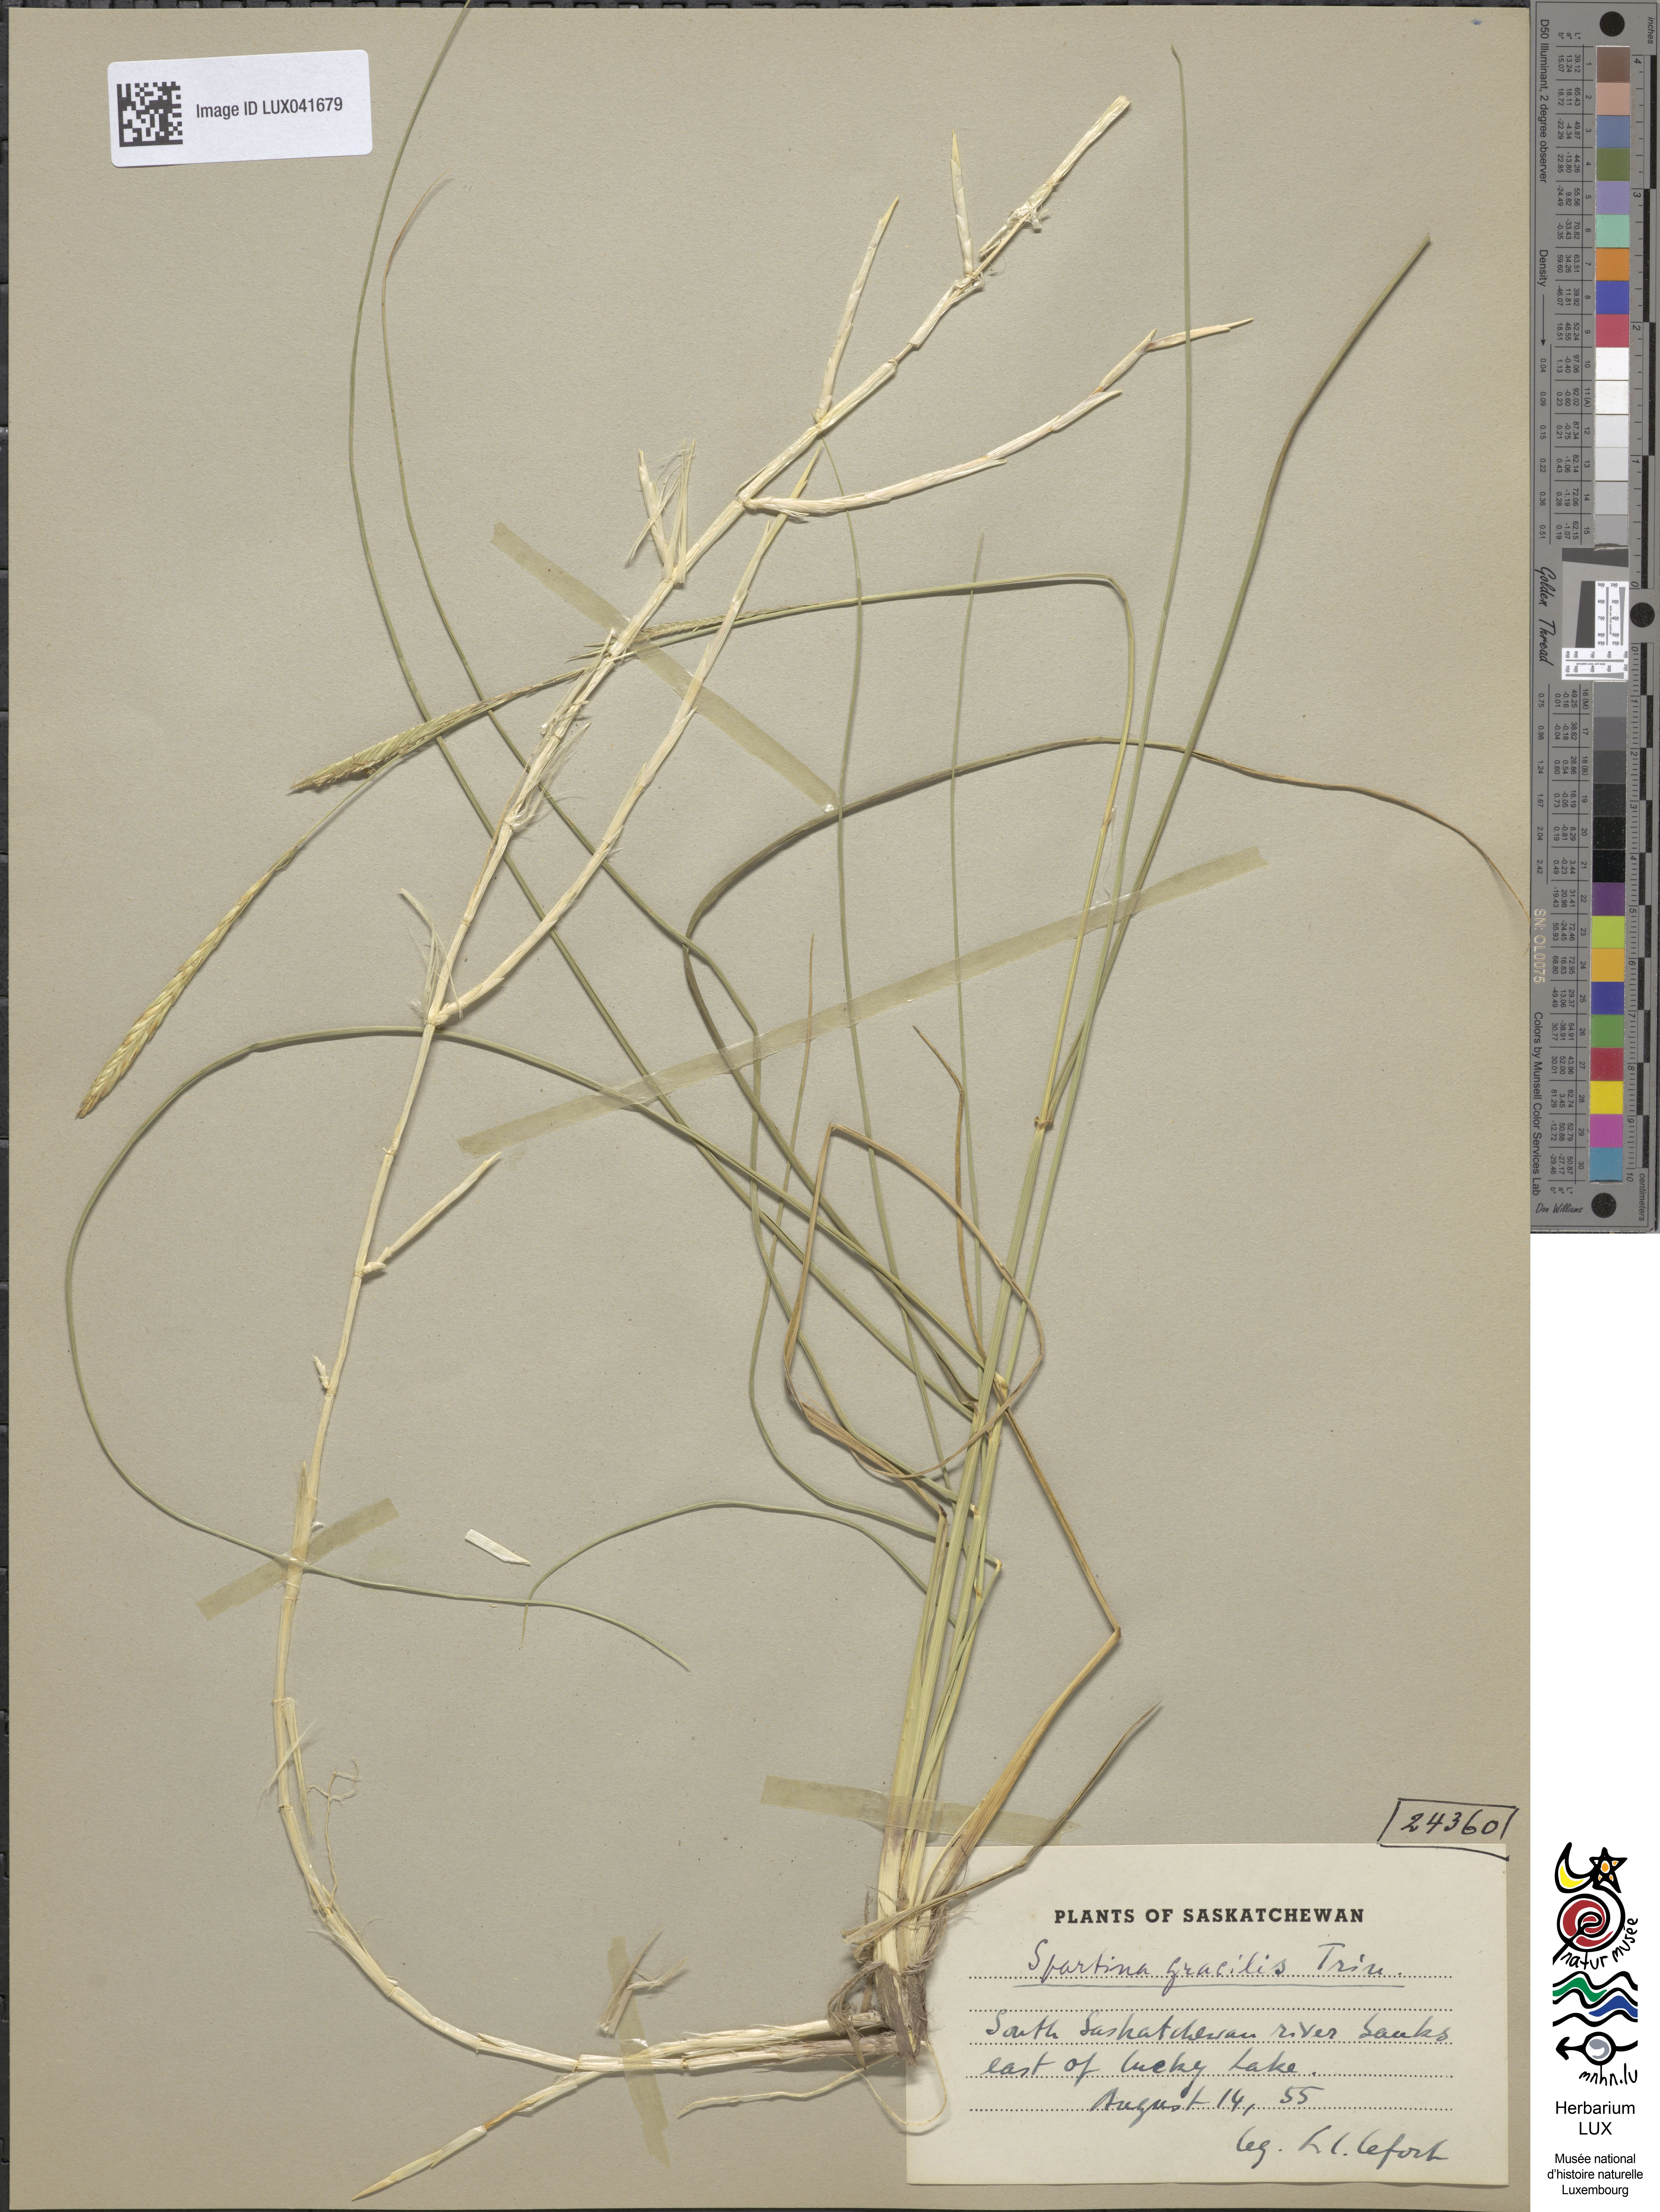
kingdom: Plantae
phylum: Tracheophyta
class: Liliopsida
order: Poales
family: Poaceae
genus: Sporobolus
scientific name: Sporobolus hookerianus
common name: Alkali cordgrass
